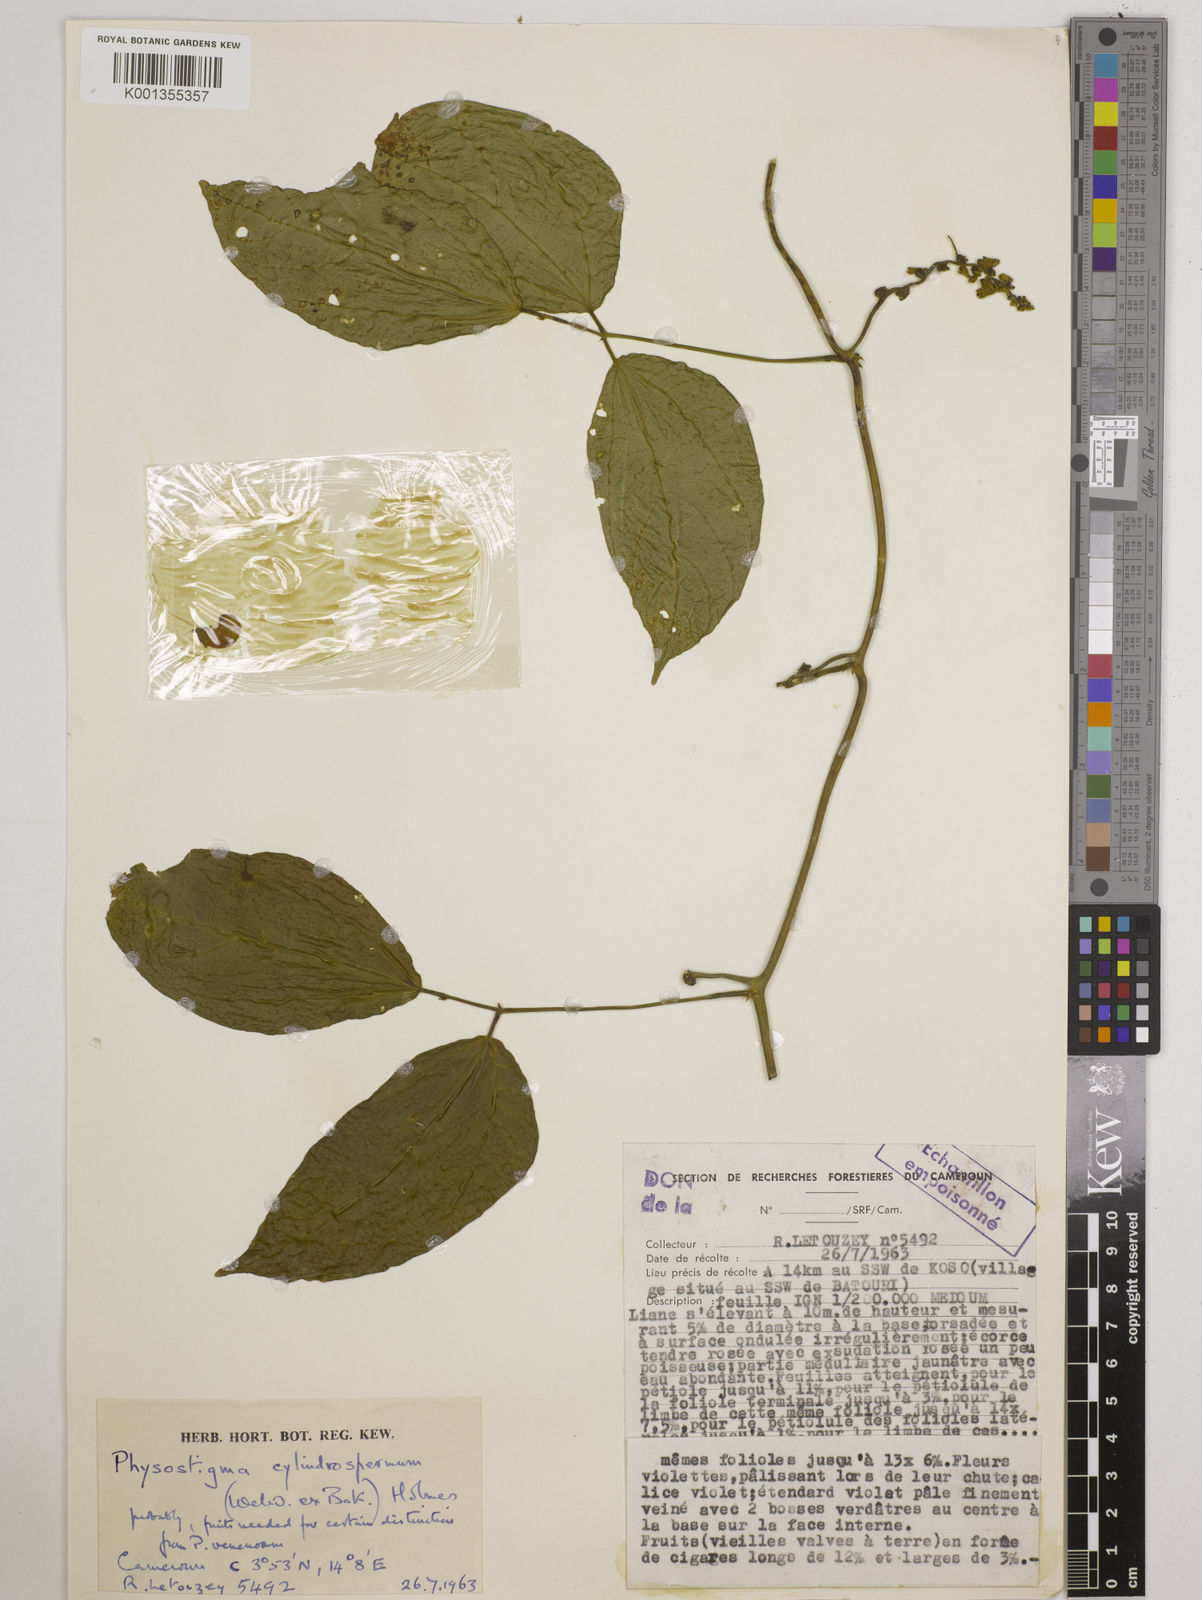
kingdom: Plantae
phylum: Tracheophyta
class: Magnoliopsida
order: Fabales
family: Fabaceae
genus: Physostigma
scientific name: Physostigma cylindrospermum
